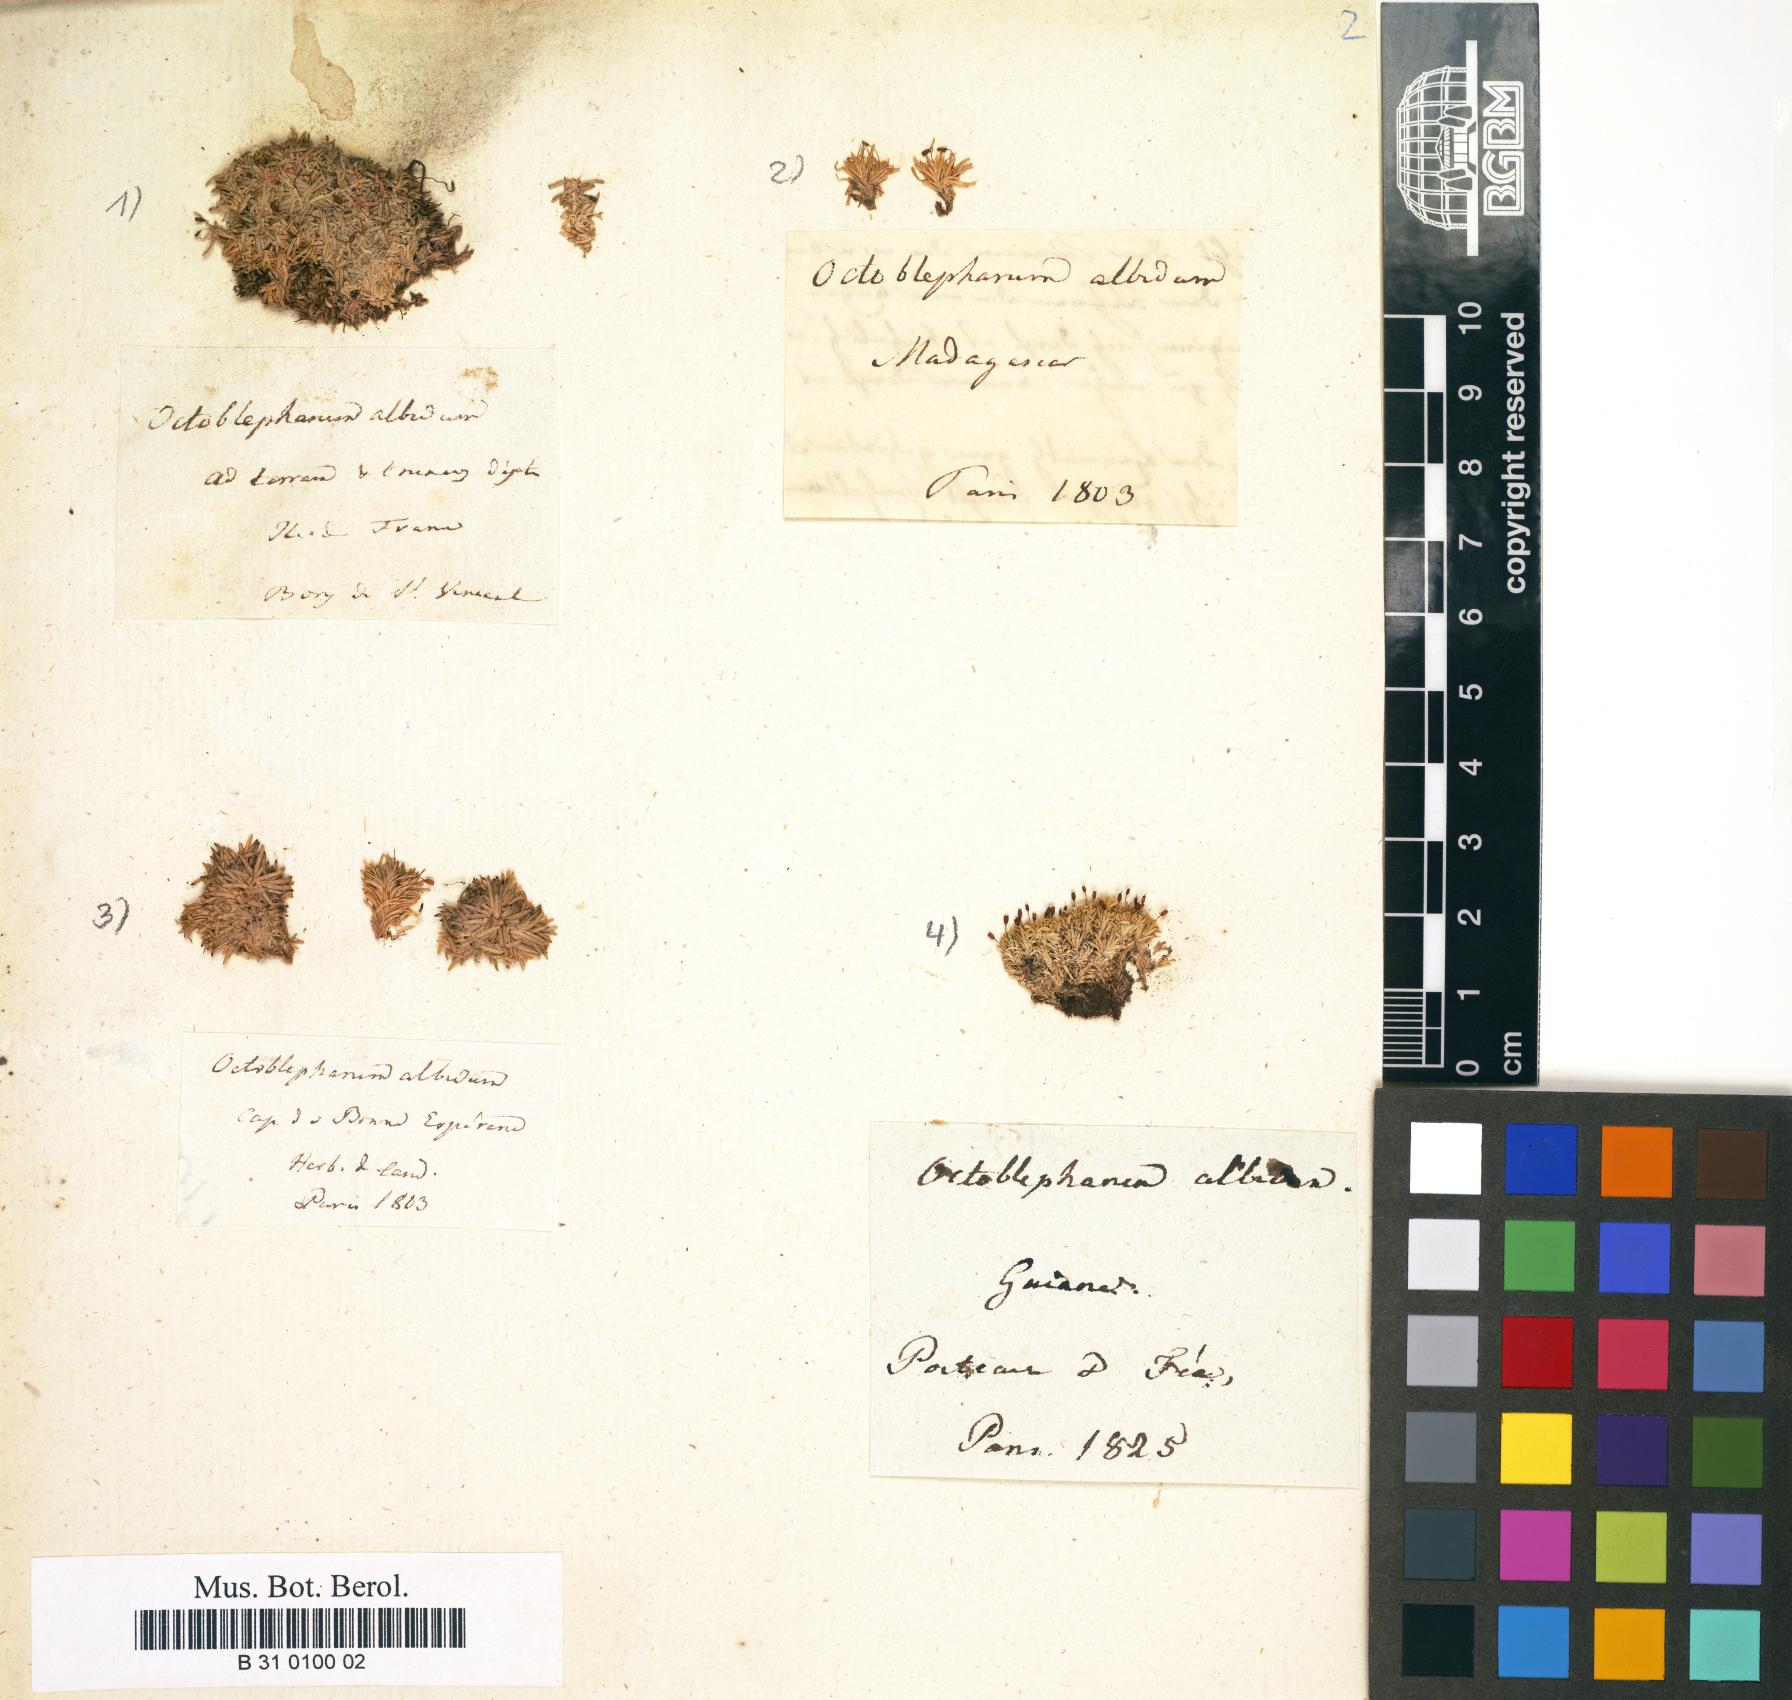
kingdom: Plantae
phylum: Bryophyta
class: Bryopsida
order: Dicranales
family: Octoblepharaceae
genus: Octoblepharum
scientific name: Octoblepharum albidum
